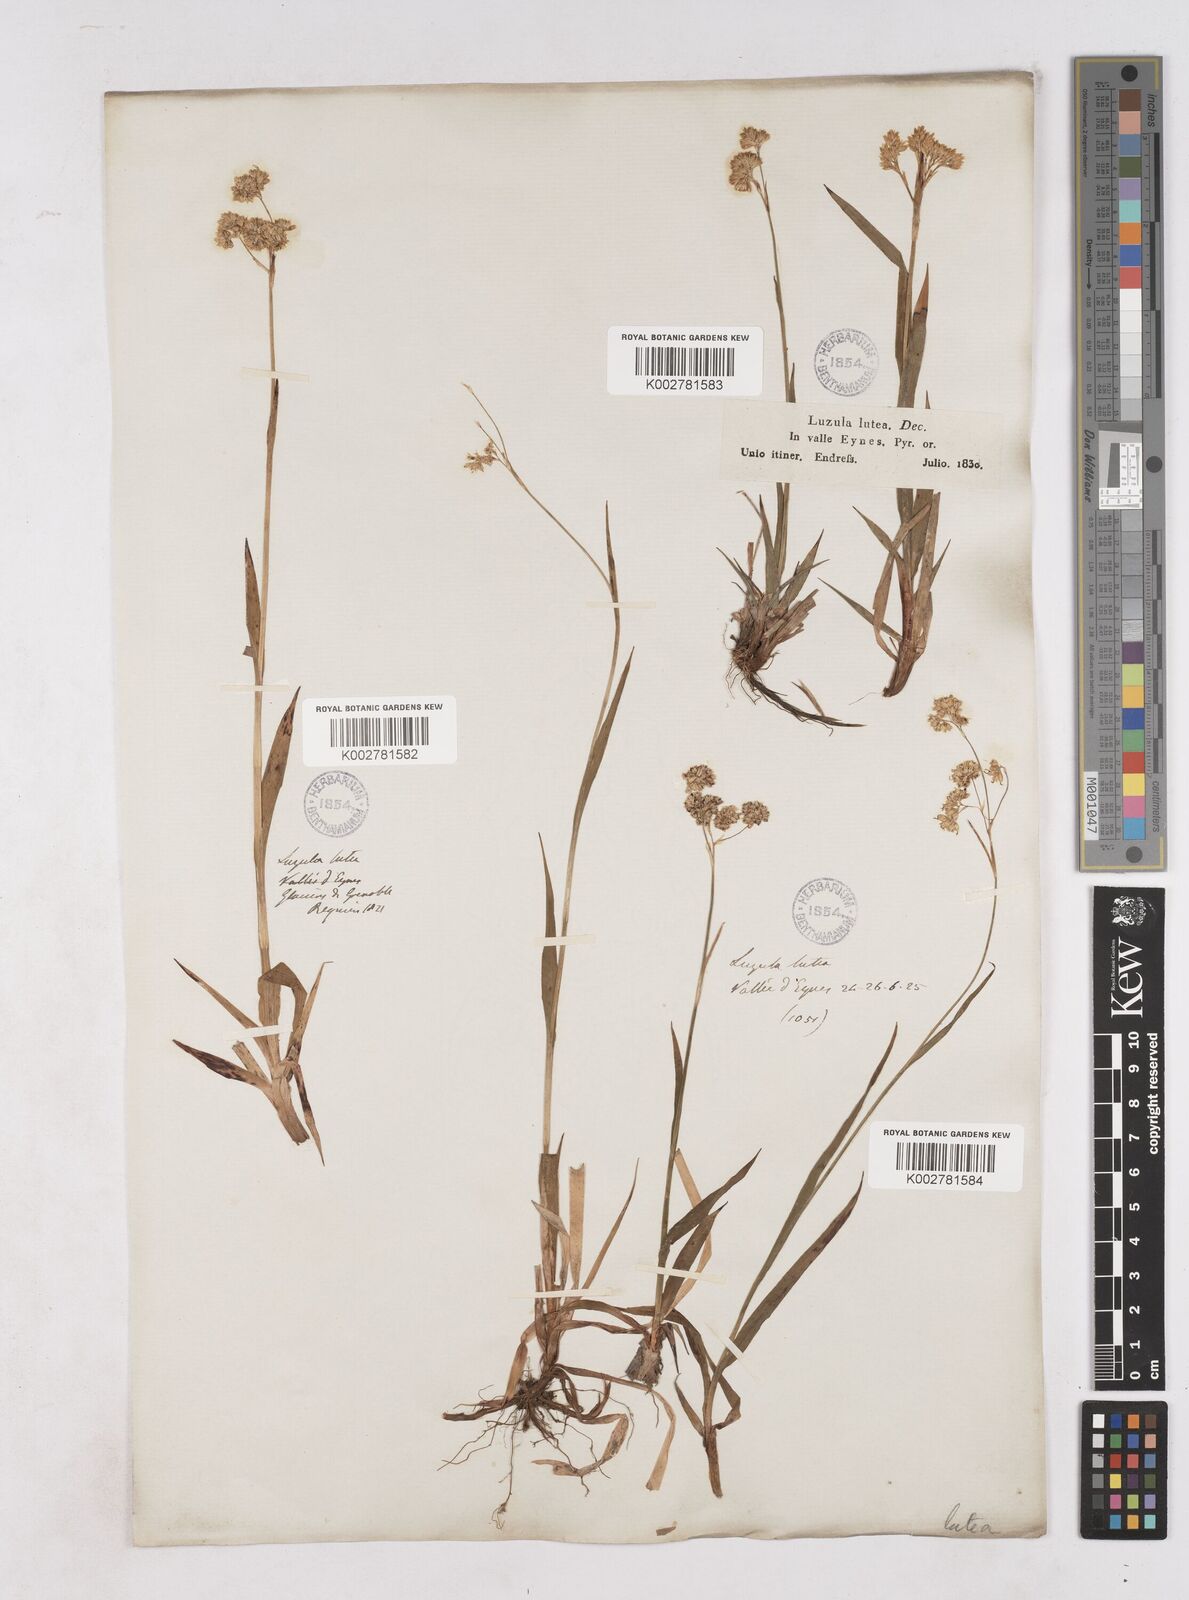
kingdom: Plantae
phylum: Tracheophyta
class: Liliopsida
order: Poales
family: Juncaceae
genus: Luzula
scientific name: Luzula lutea
